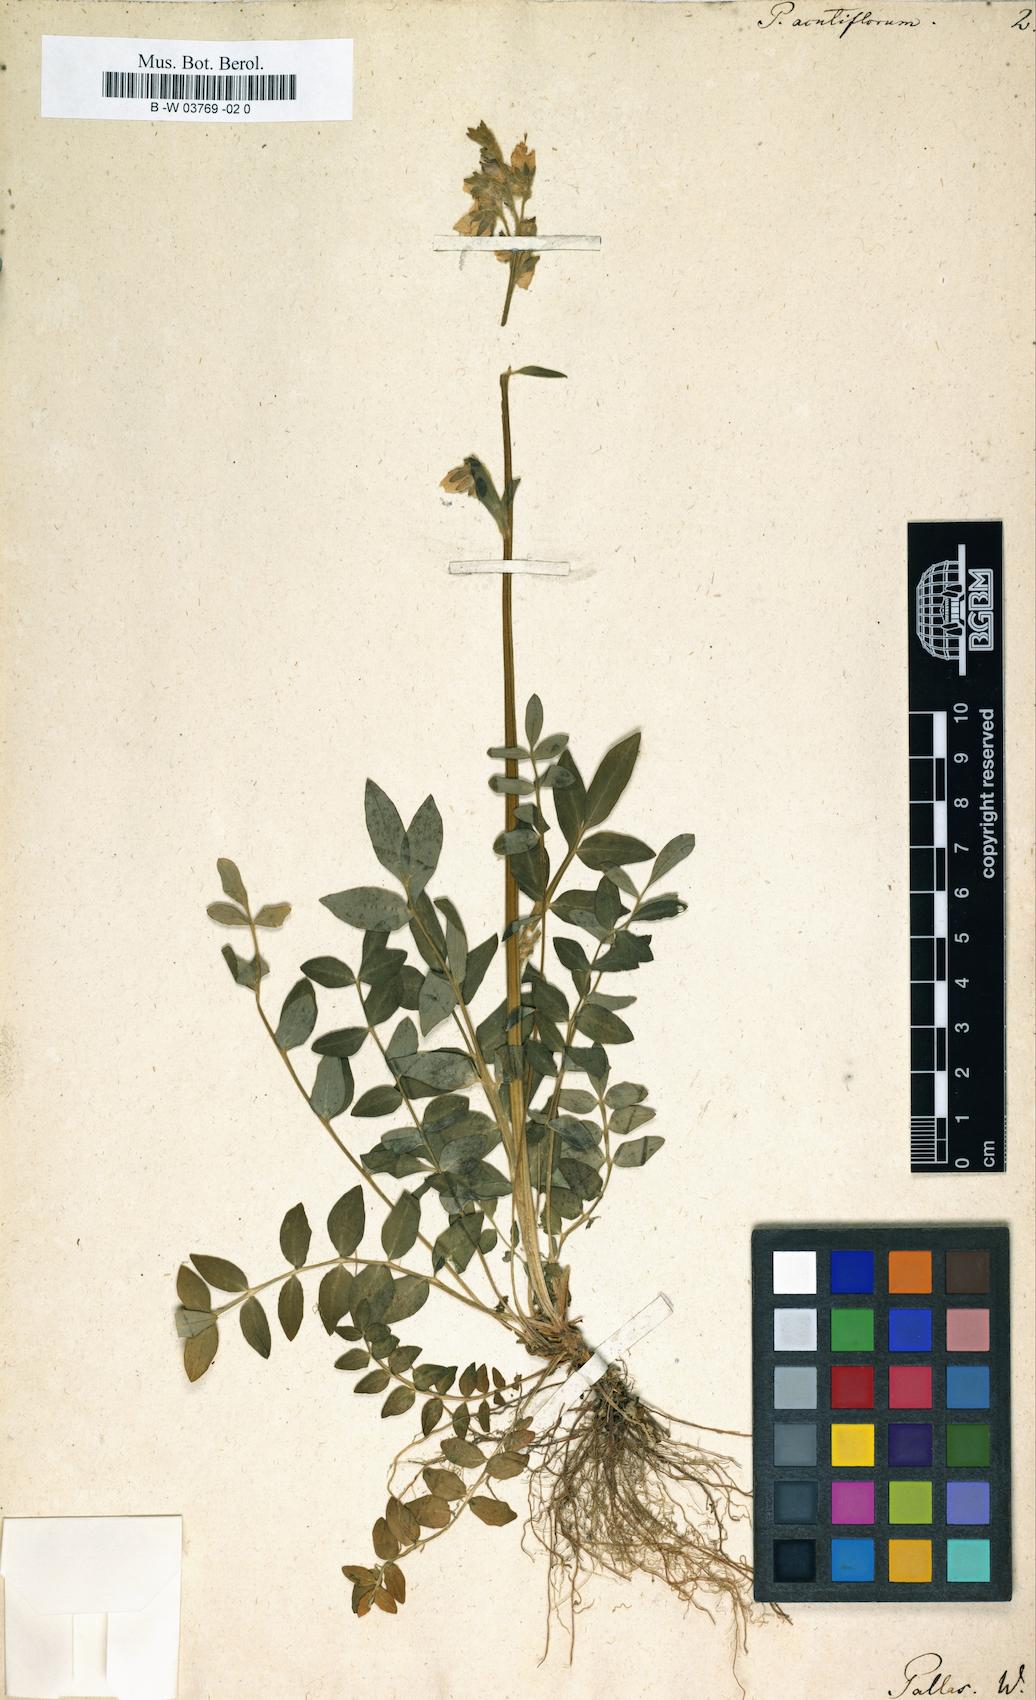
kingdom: Plantae
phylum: Tracheophyta
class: Magnoliopsida
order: Ericales
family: Polemoniaceae
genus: Polemonium
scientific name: Polemonium acutiflorum
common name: Tall jacob's-ladder
